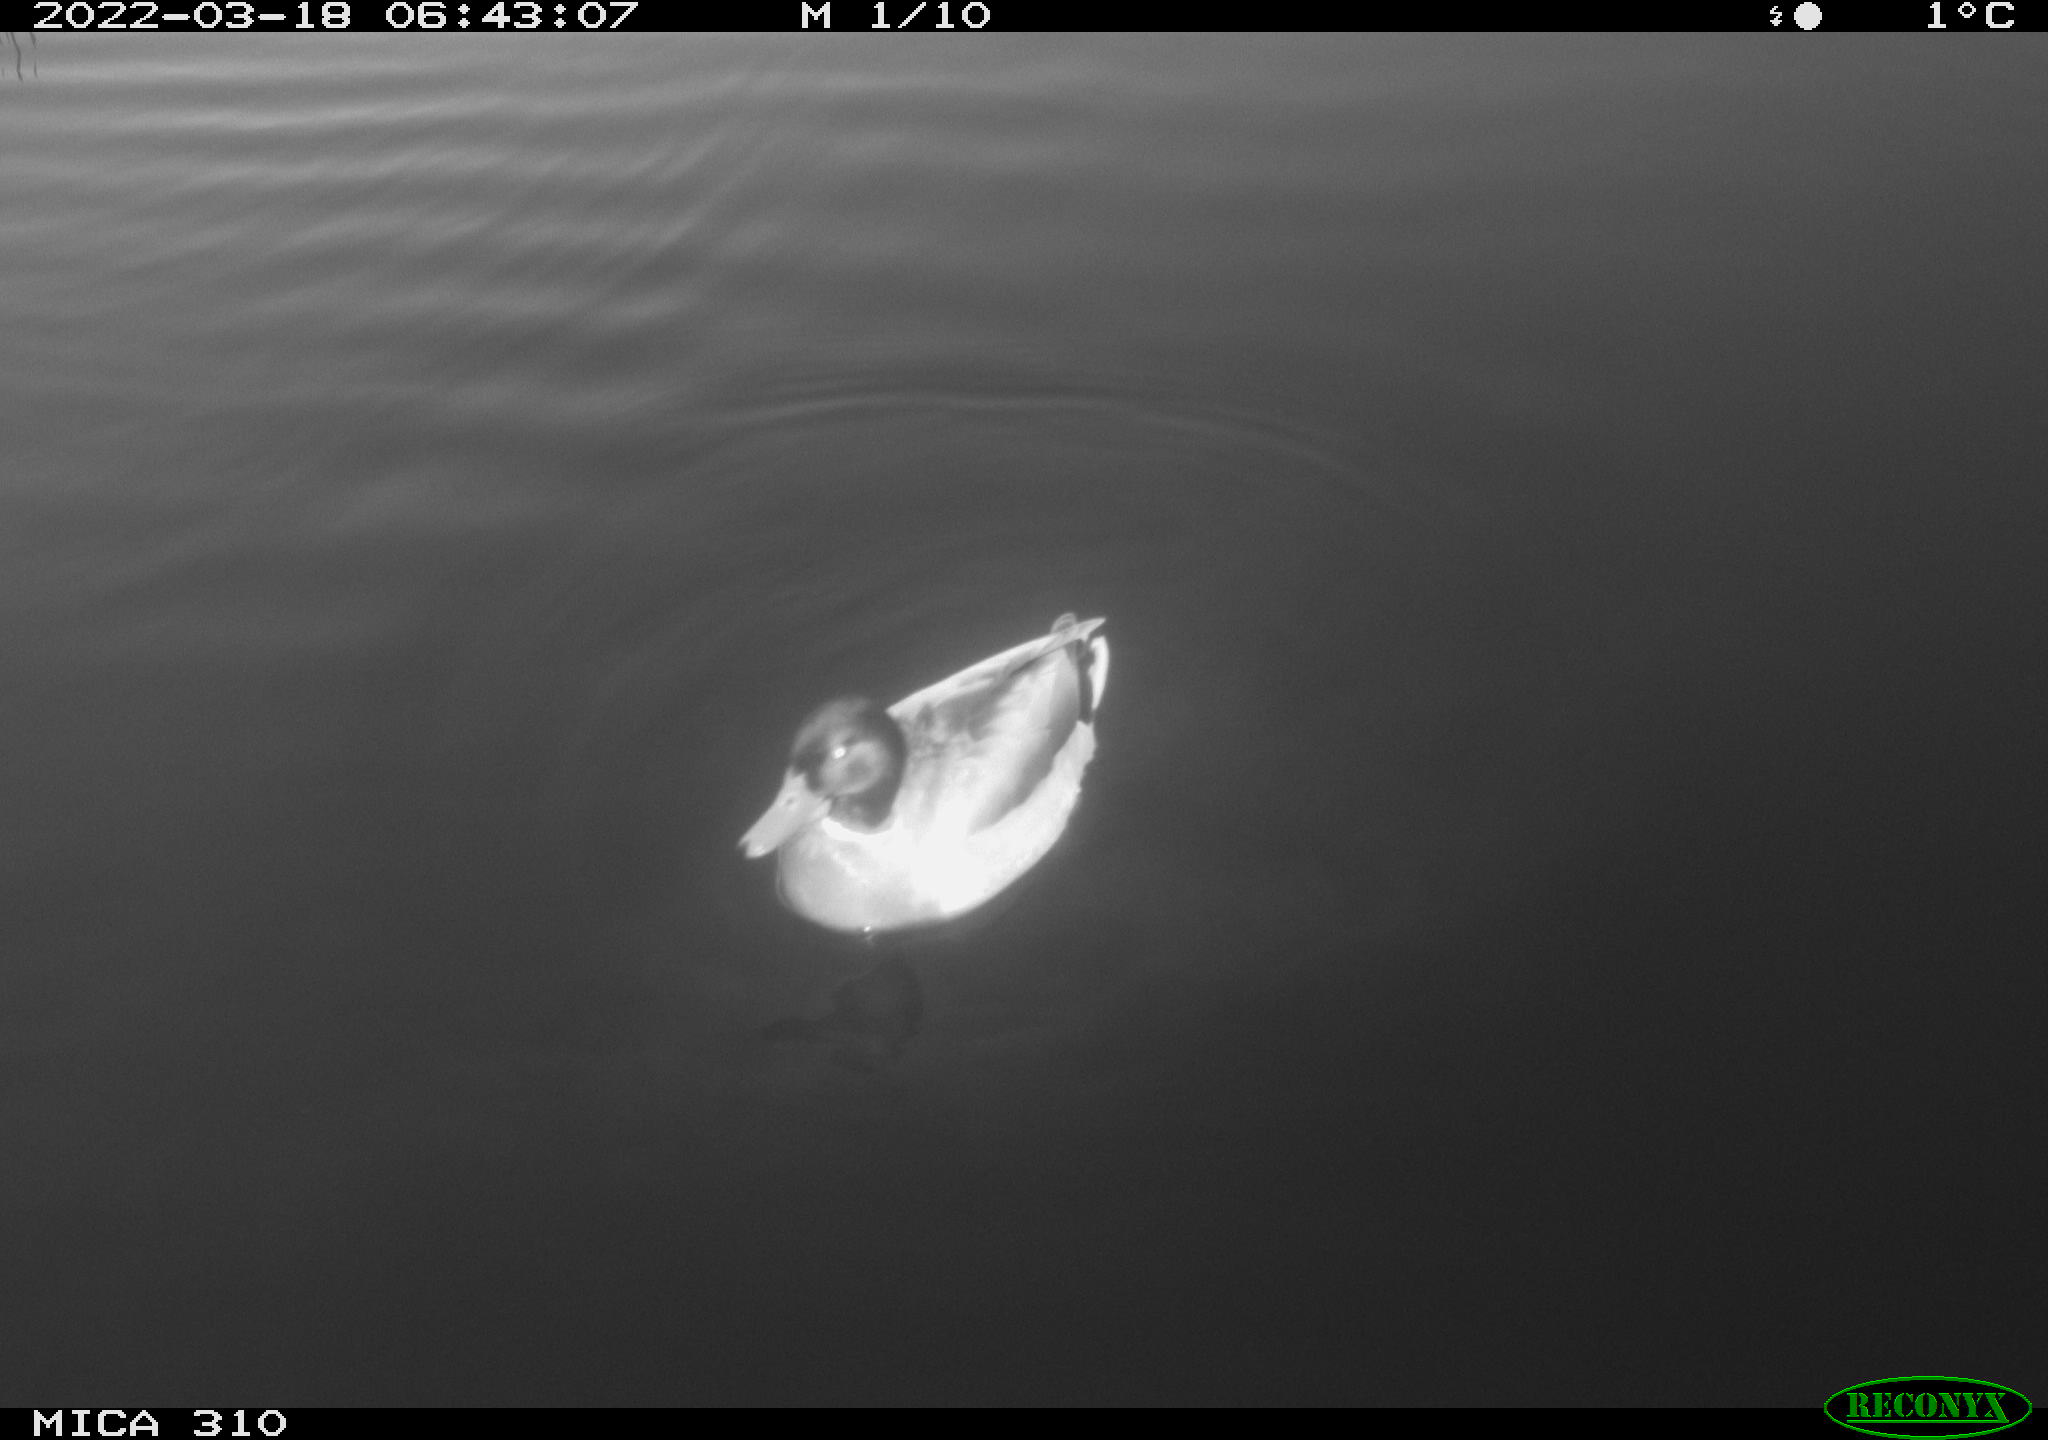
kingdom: Animalia
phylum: Chordata
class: Aves
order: Anseriformes
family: Anatidae
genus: Anas
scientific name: Anas platyrhynchos
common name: Mallard
